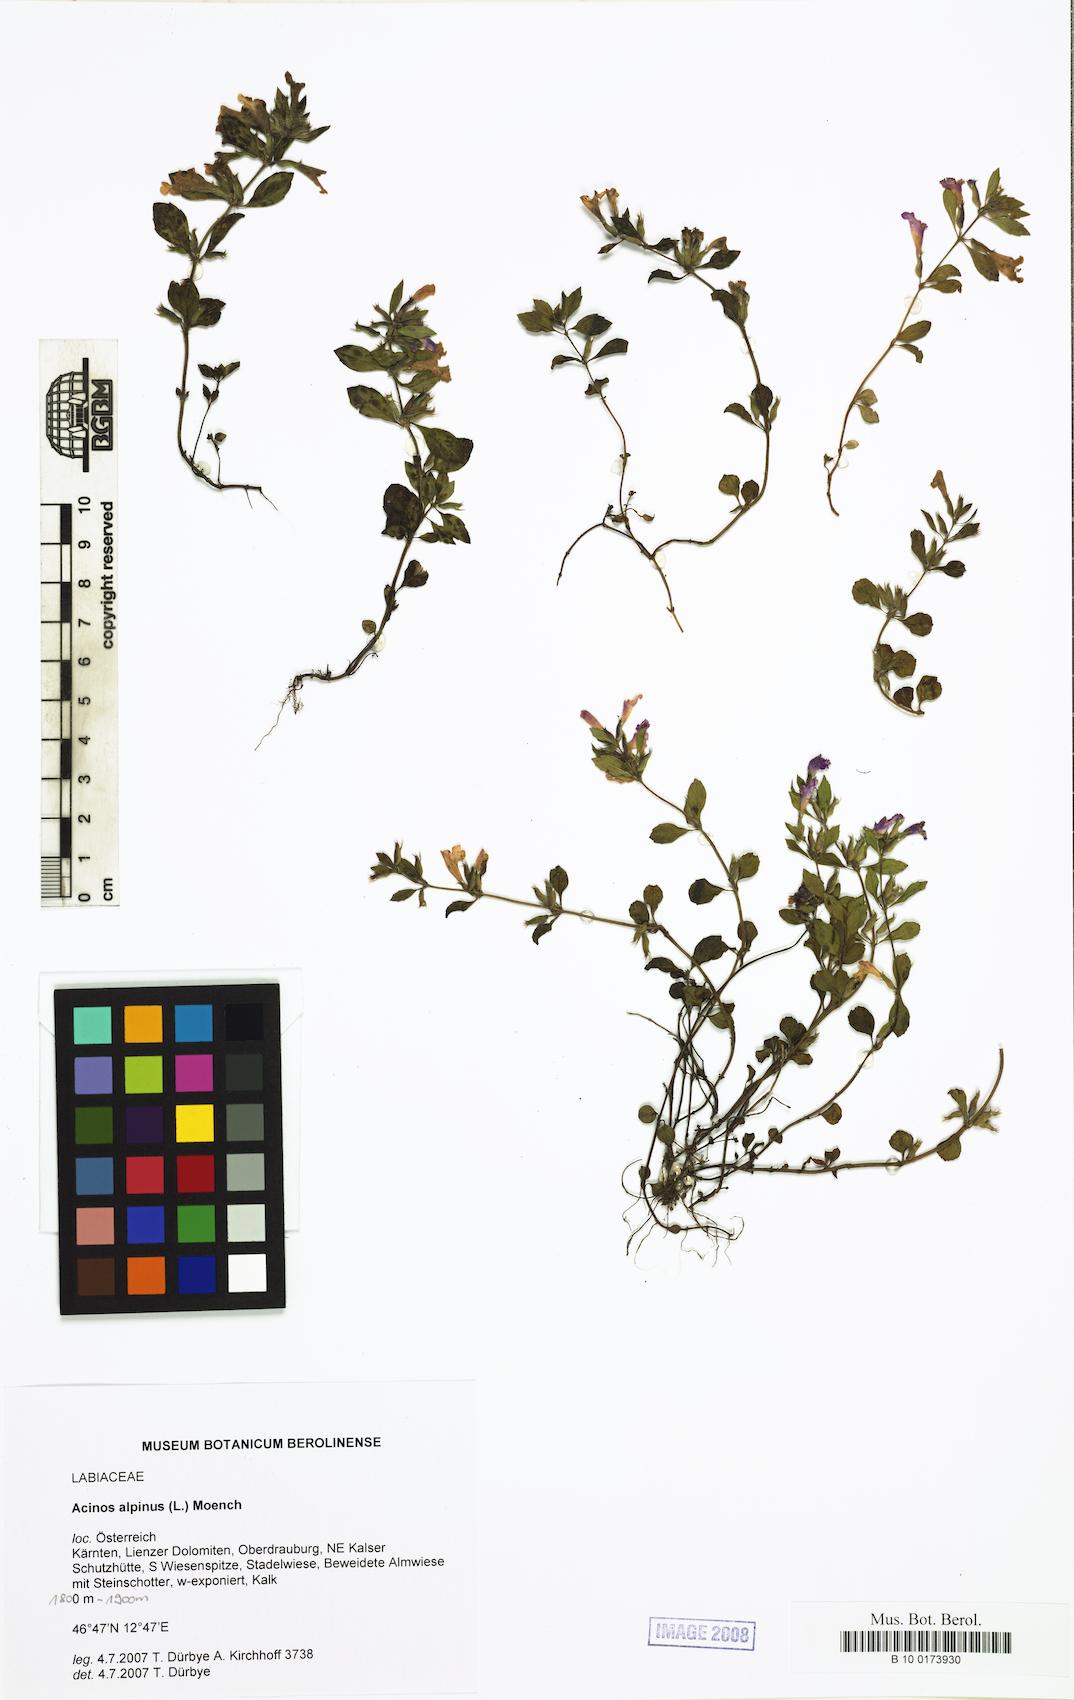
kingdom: Plantae
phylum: Tracheophyta
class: Magnoliopsida
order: Lamiales
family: Lamiaceae
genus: Clinopodium
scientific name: Clinopodium alpinum
